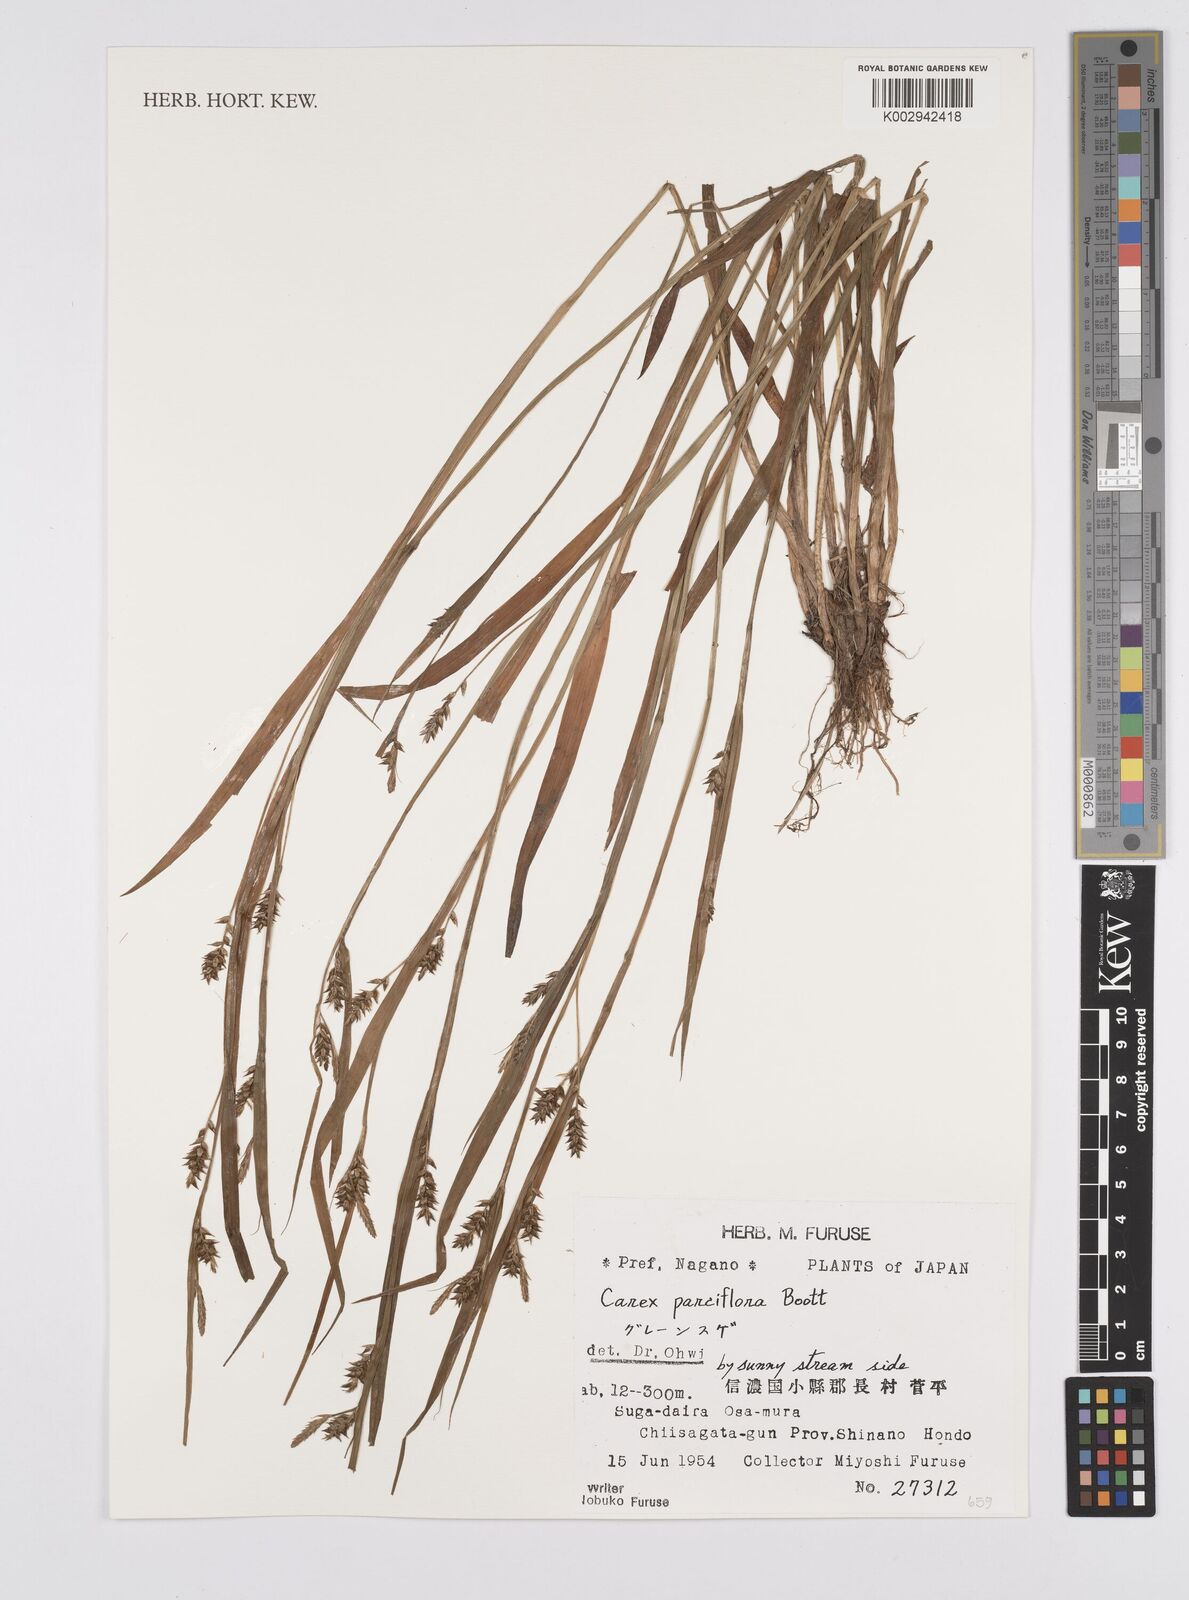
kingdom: Plantae
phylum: Tracheophyta
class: Liliopsida
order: Poales
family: Cyperaceae
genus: Carex
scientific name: Carex parciflora
